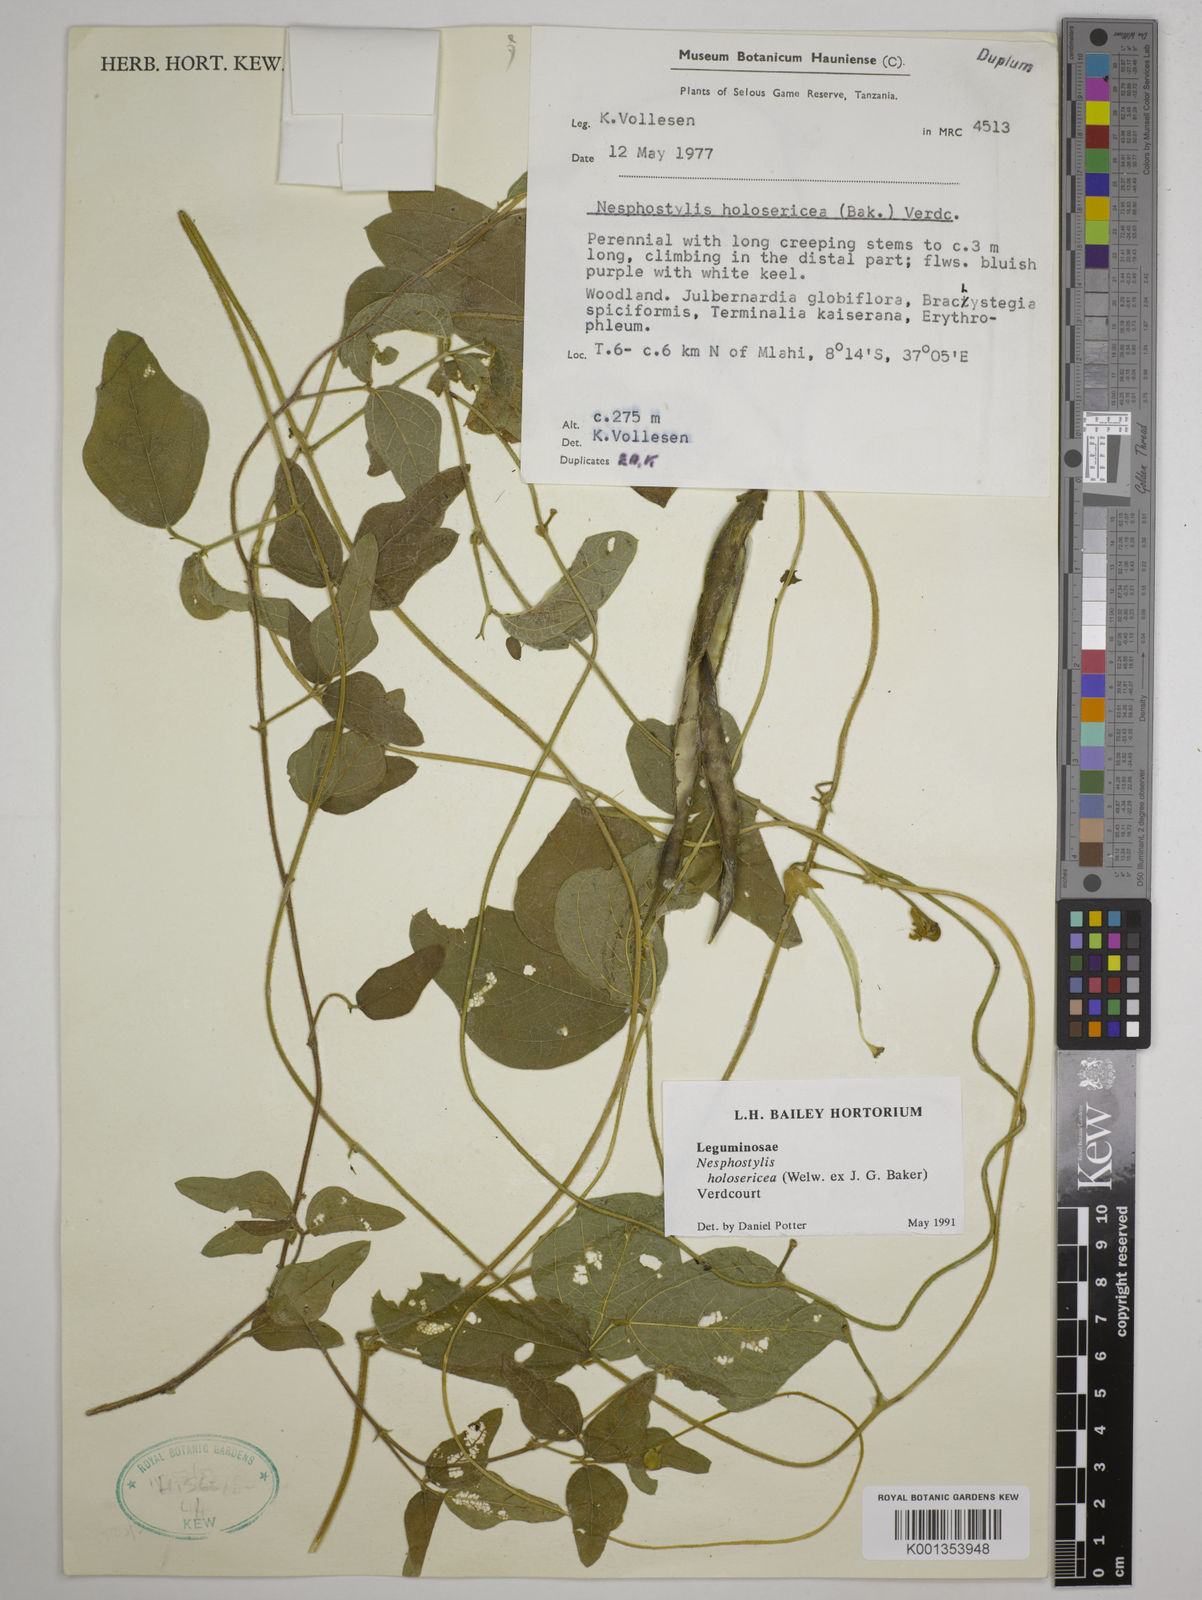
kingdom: Plantae
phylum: Tracheophyta
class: Magnoliopsida
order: Fabales
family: Fabaceae
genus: Nesphostylis
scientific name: Nesphostylis holosericea
